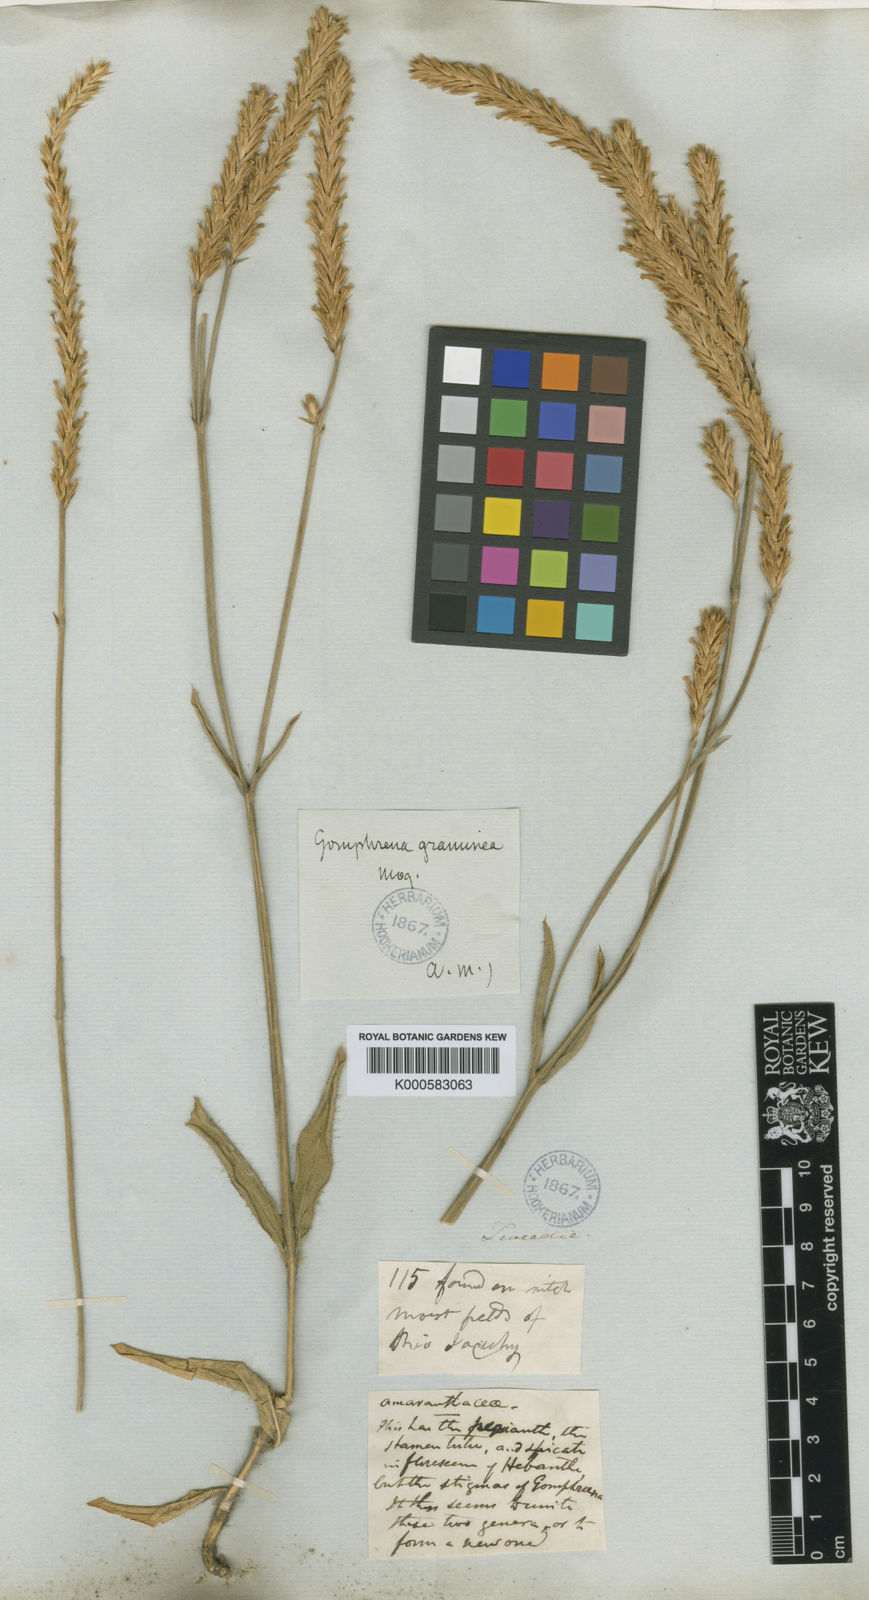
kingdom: Plantae
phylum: Tracheophyta
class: Magnoliopsida
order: Caryophyllales
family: Amaranthaceae
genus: Gomphrena
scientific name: Gomphrena graminea
